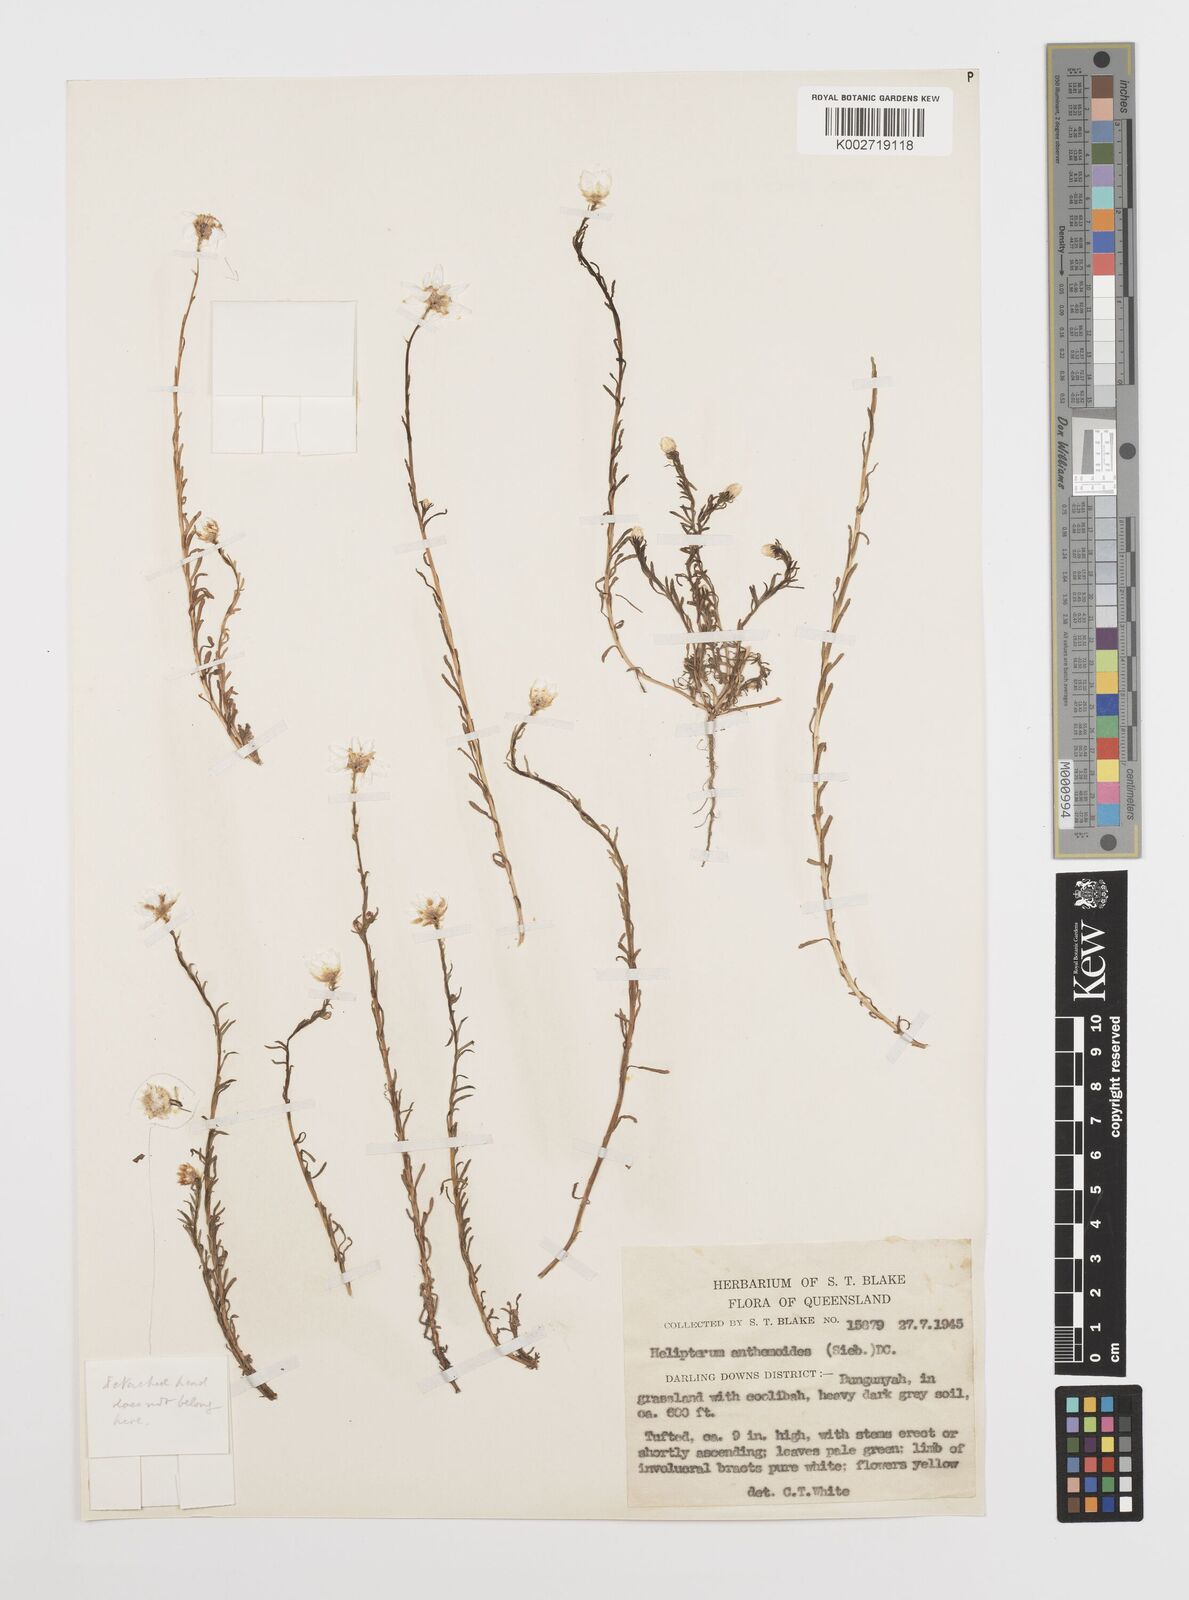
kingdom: Plantae
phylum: Tracheophyta
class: Magnoliopsida
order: Asterales
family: Asteraceae
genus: Rhodanthe
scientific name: Rhodanthe diffusa
